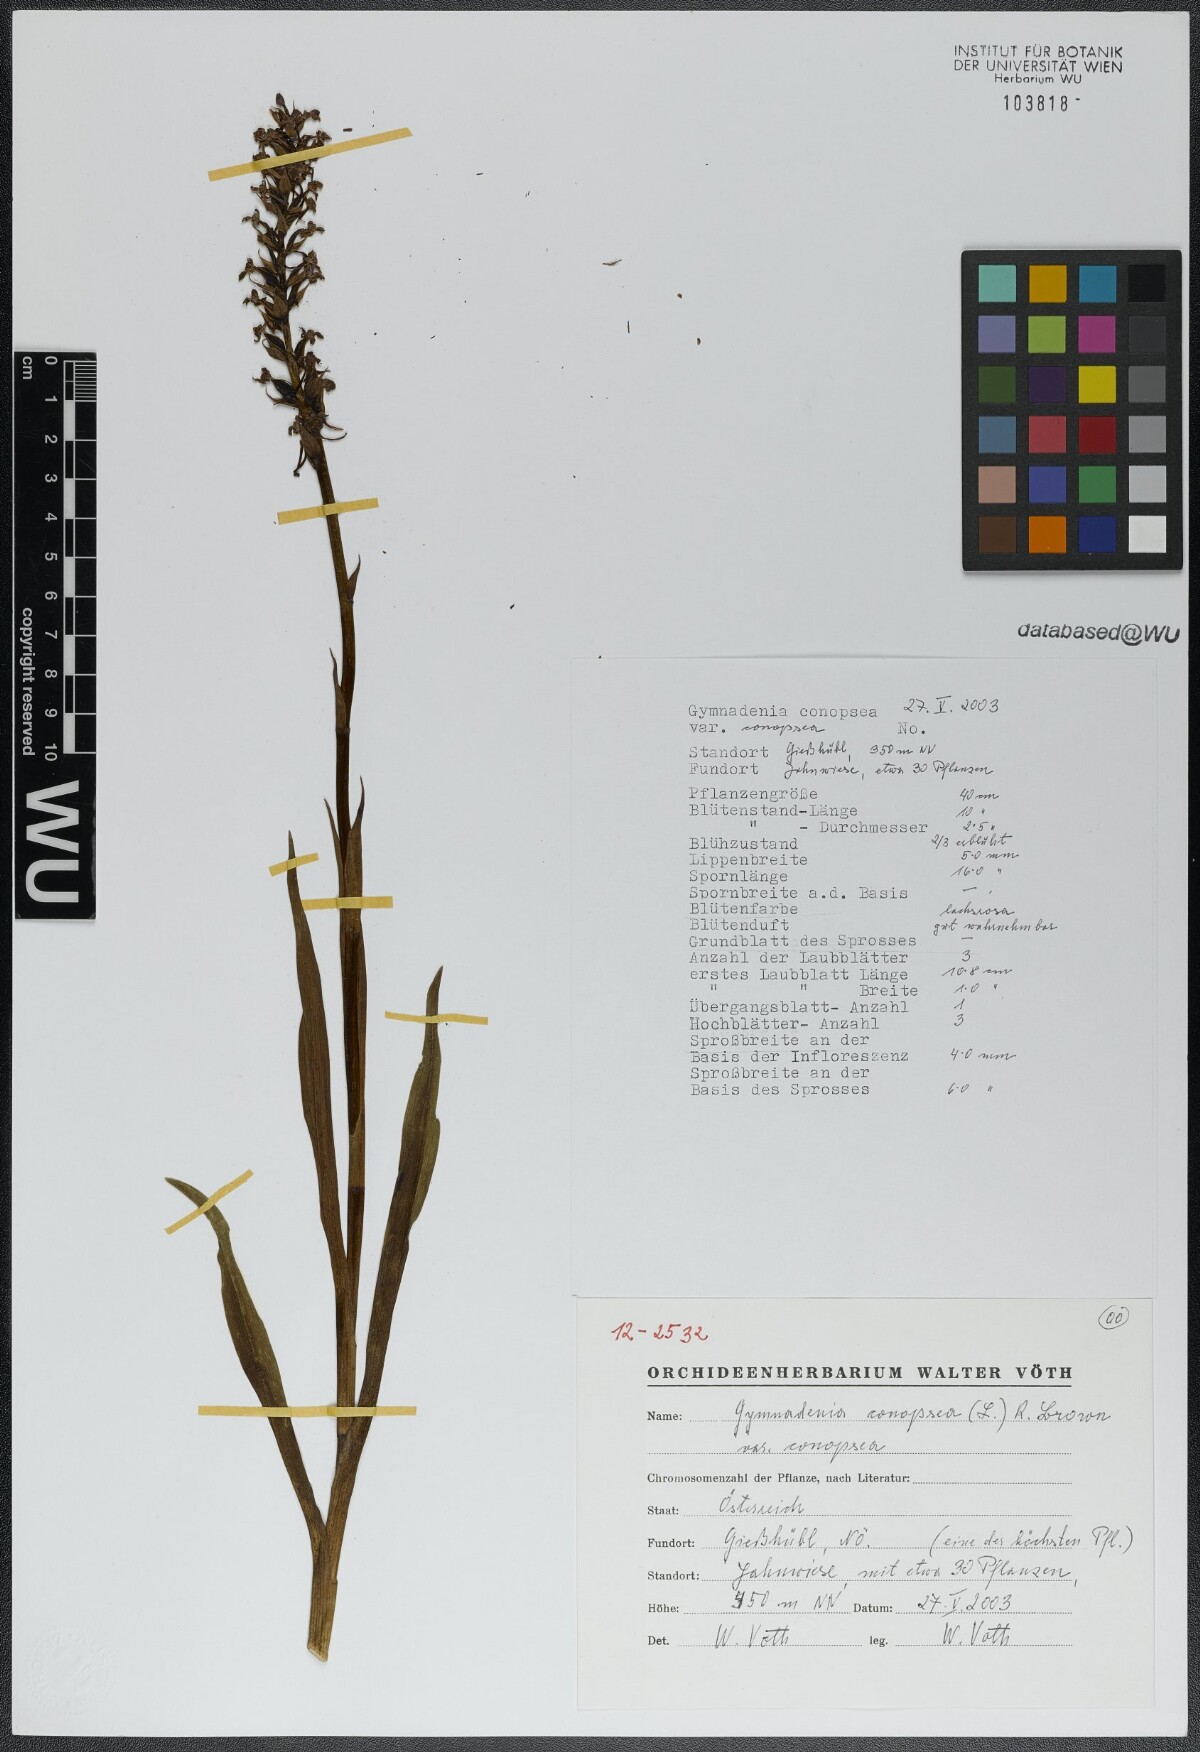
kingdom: Plantae
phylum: Tracheophyta
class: Liliopsida
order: Asparagales
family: Orchidaceae
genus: Gymnadenia
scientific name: Gymnadenia conopsea
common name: Fragrant orchid
